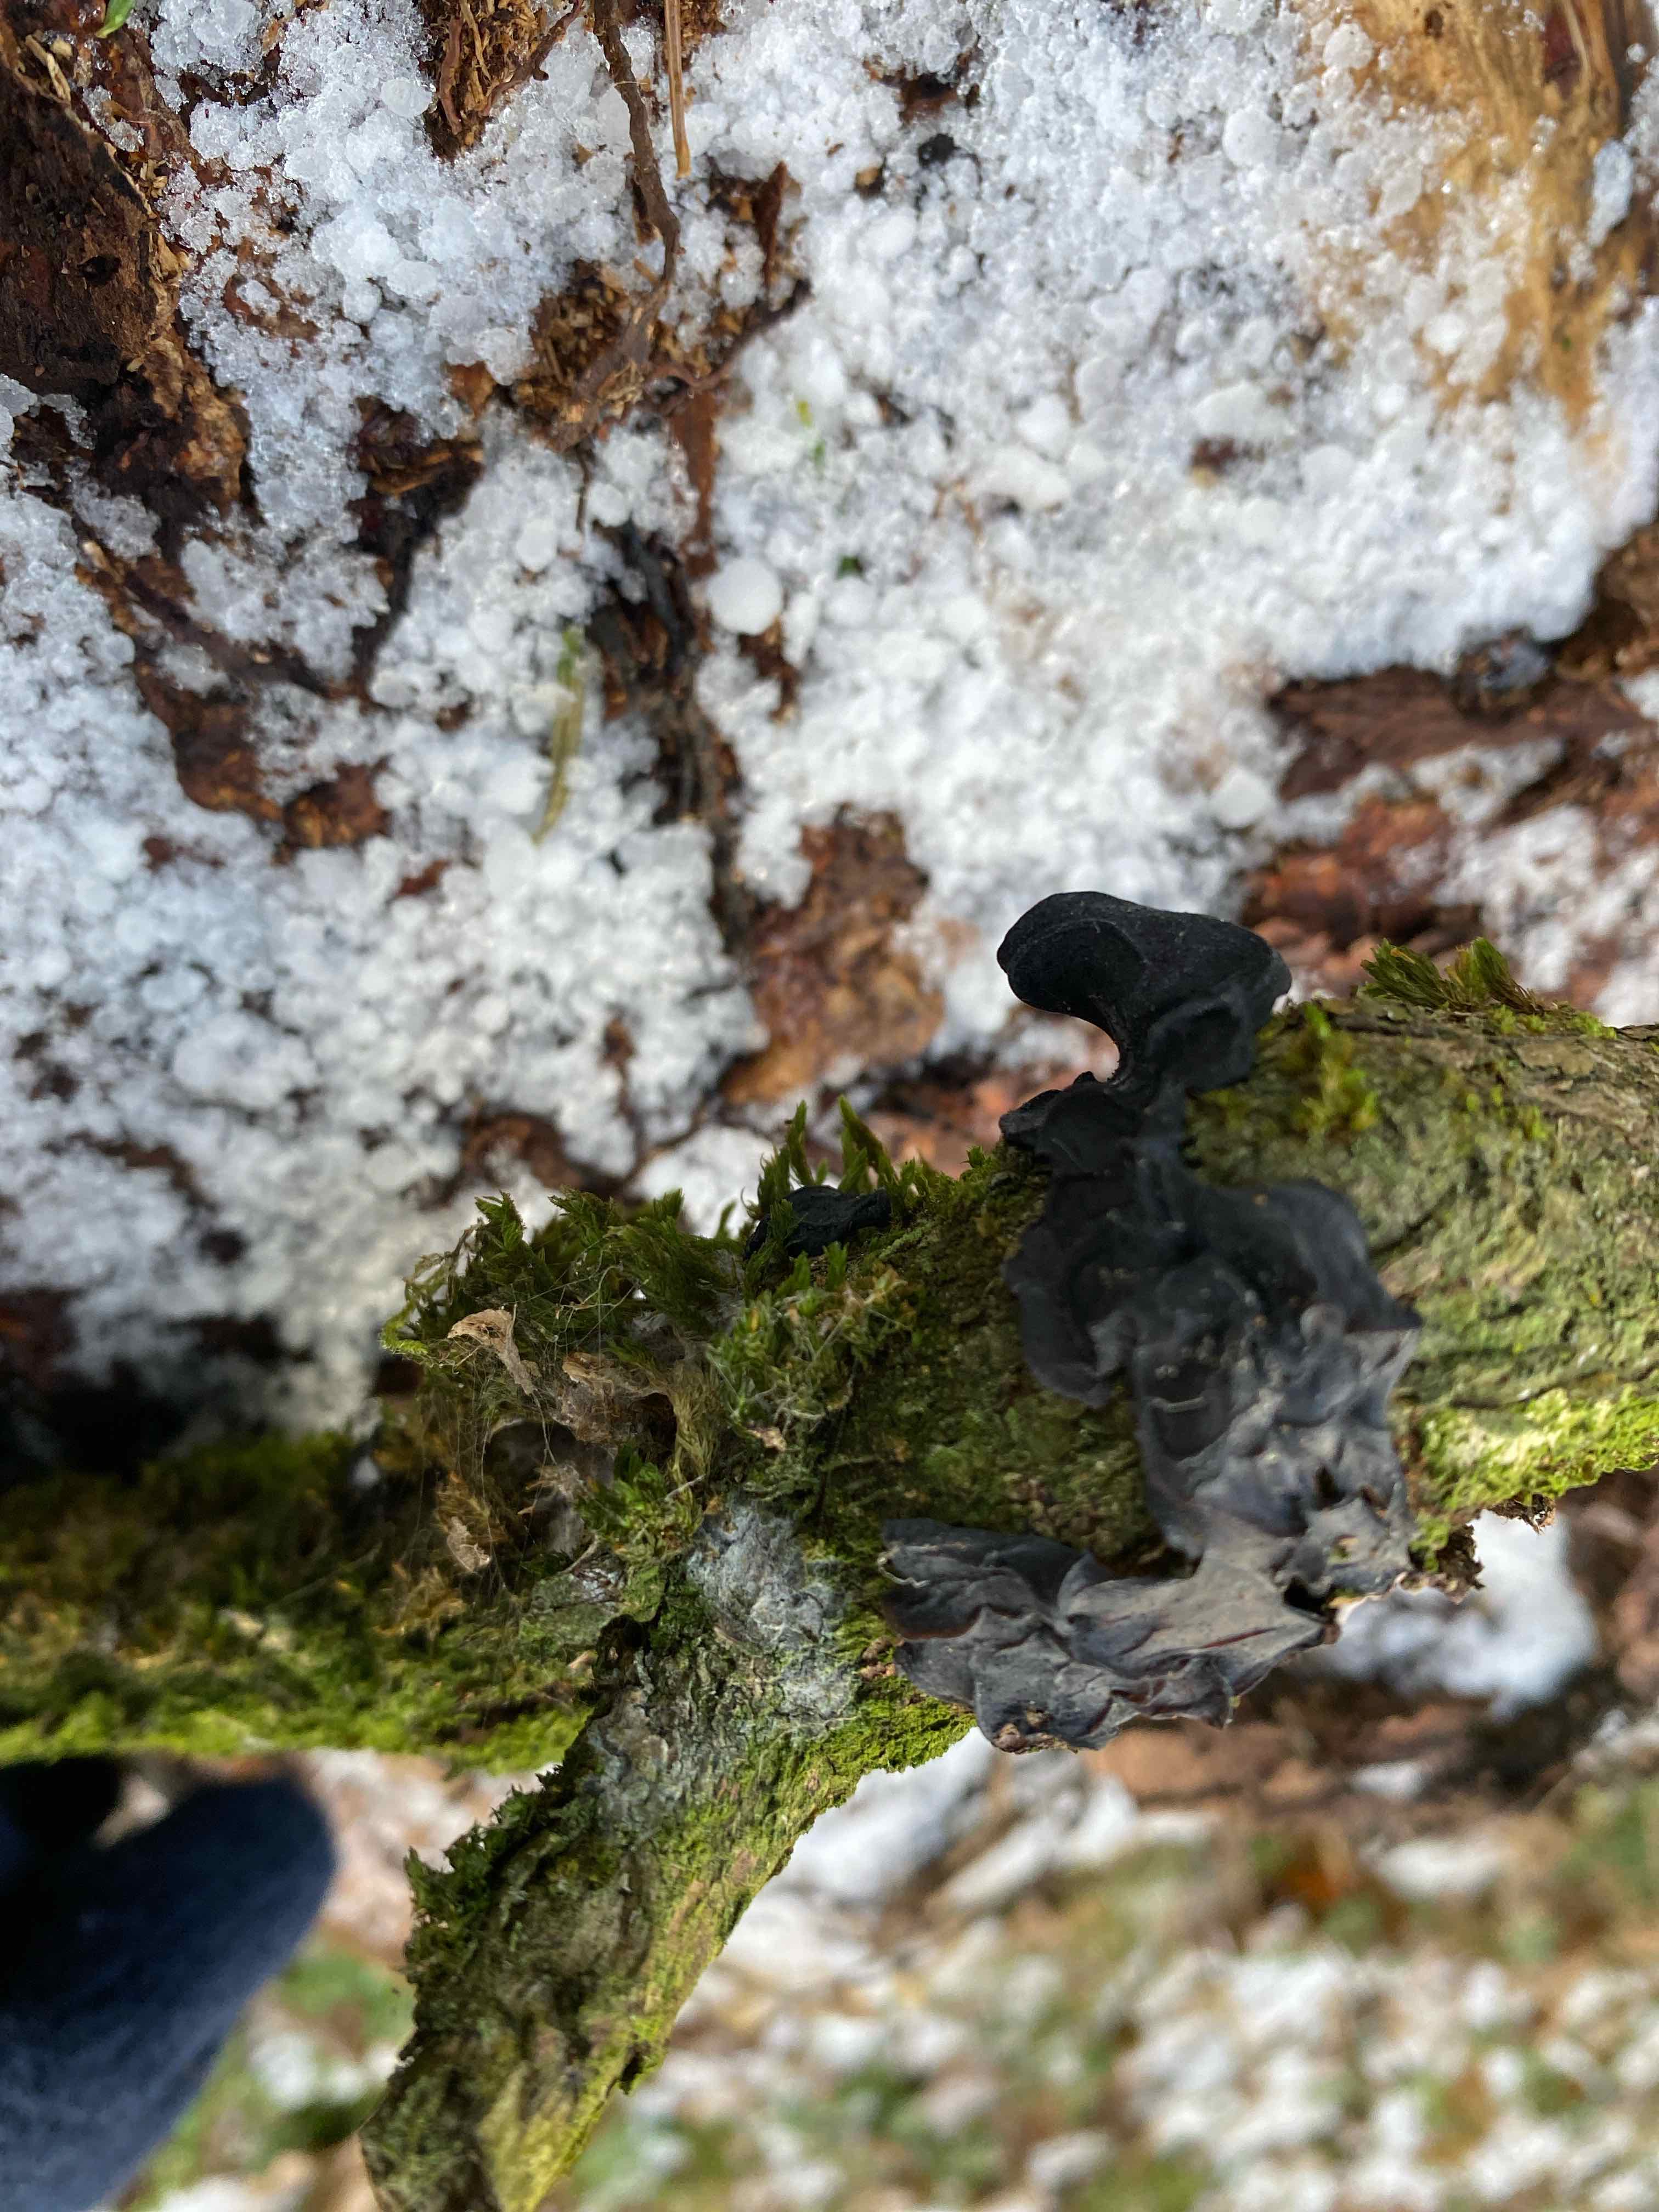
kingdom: Fungi
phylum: Basidiomycota
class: Agaricomycetes
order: Auriculariales
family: Auriculariaceae
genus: Exidia
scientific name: Exidia glandulosa
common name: ege-bævretop
